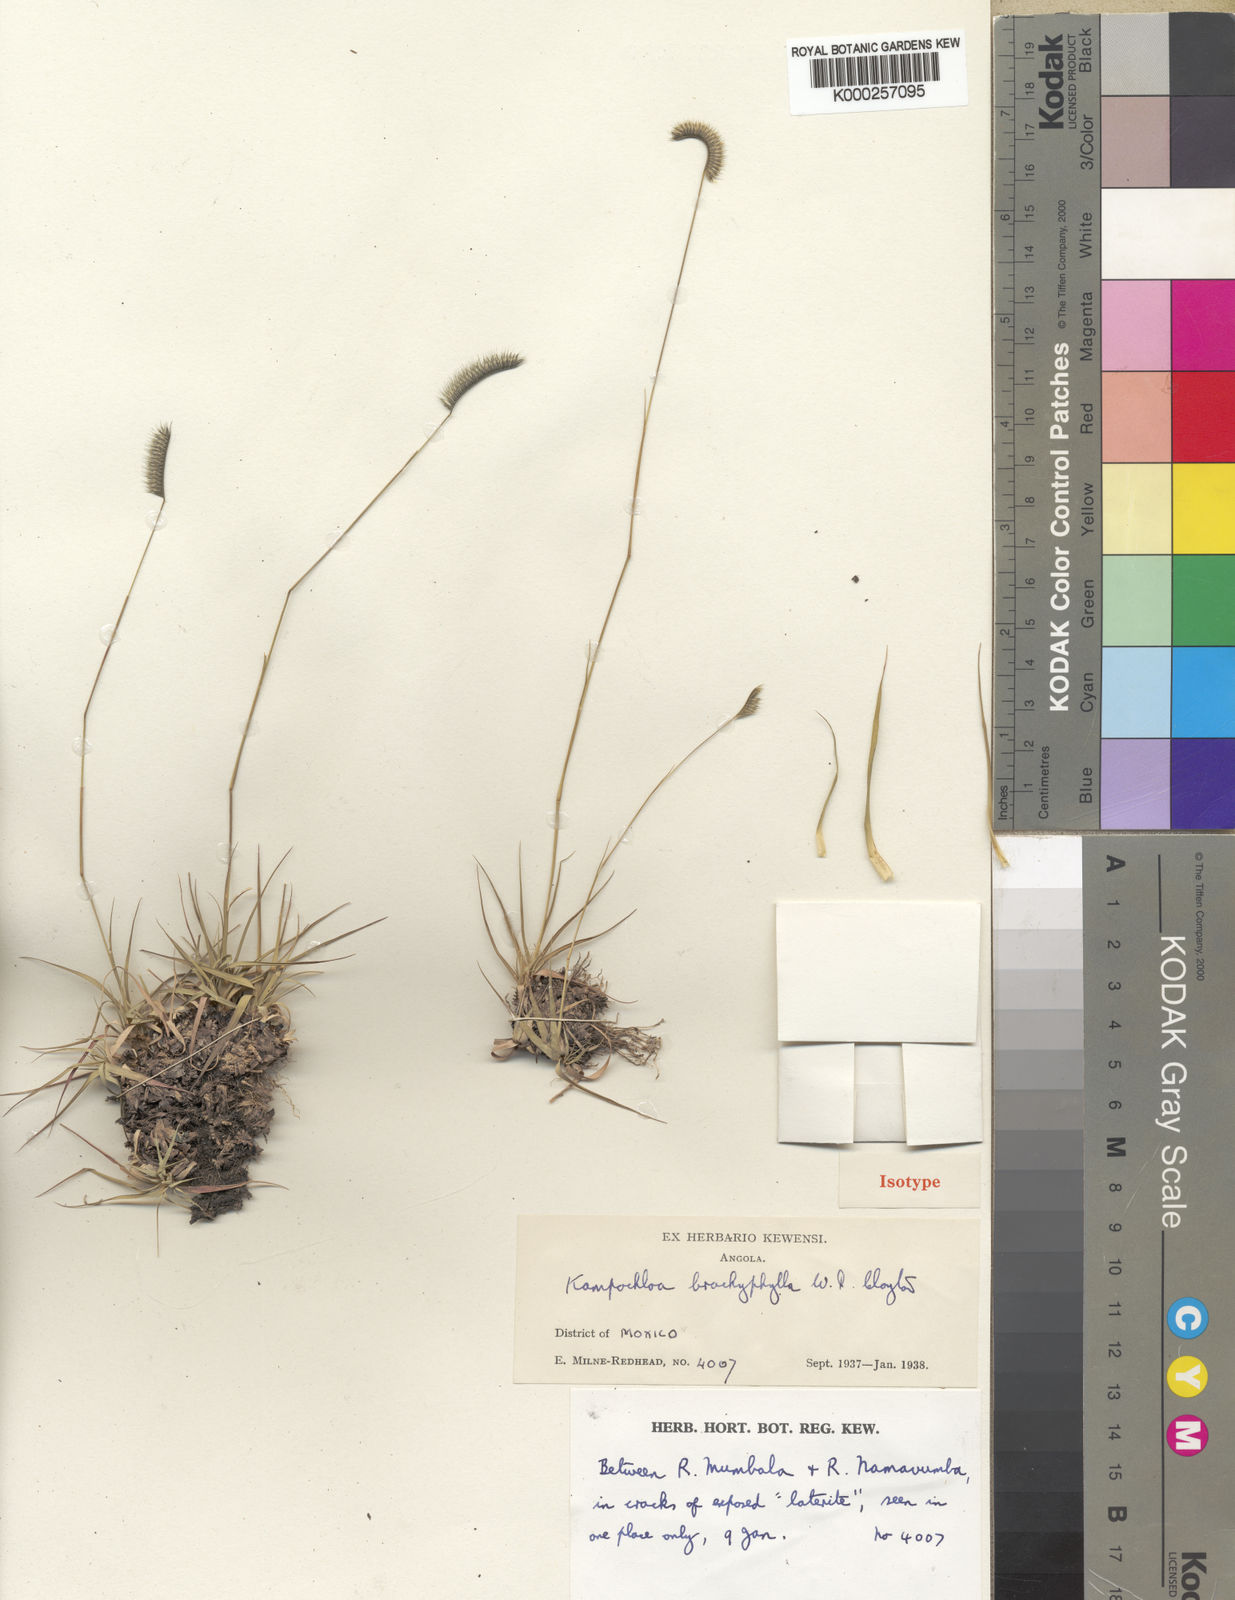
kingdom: Plantae
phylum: Tracheophyta
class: Liliopsida
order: Poales
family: Poaceae
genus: Kampochloa
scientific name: Kampochloa brachyphylla
